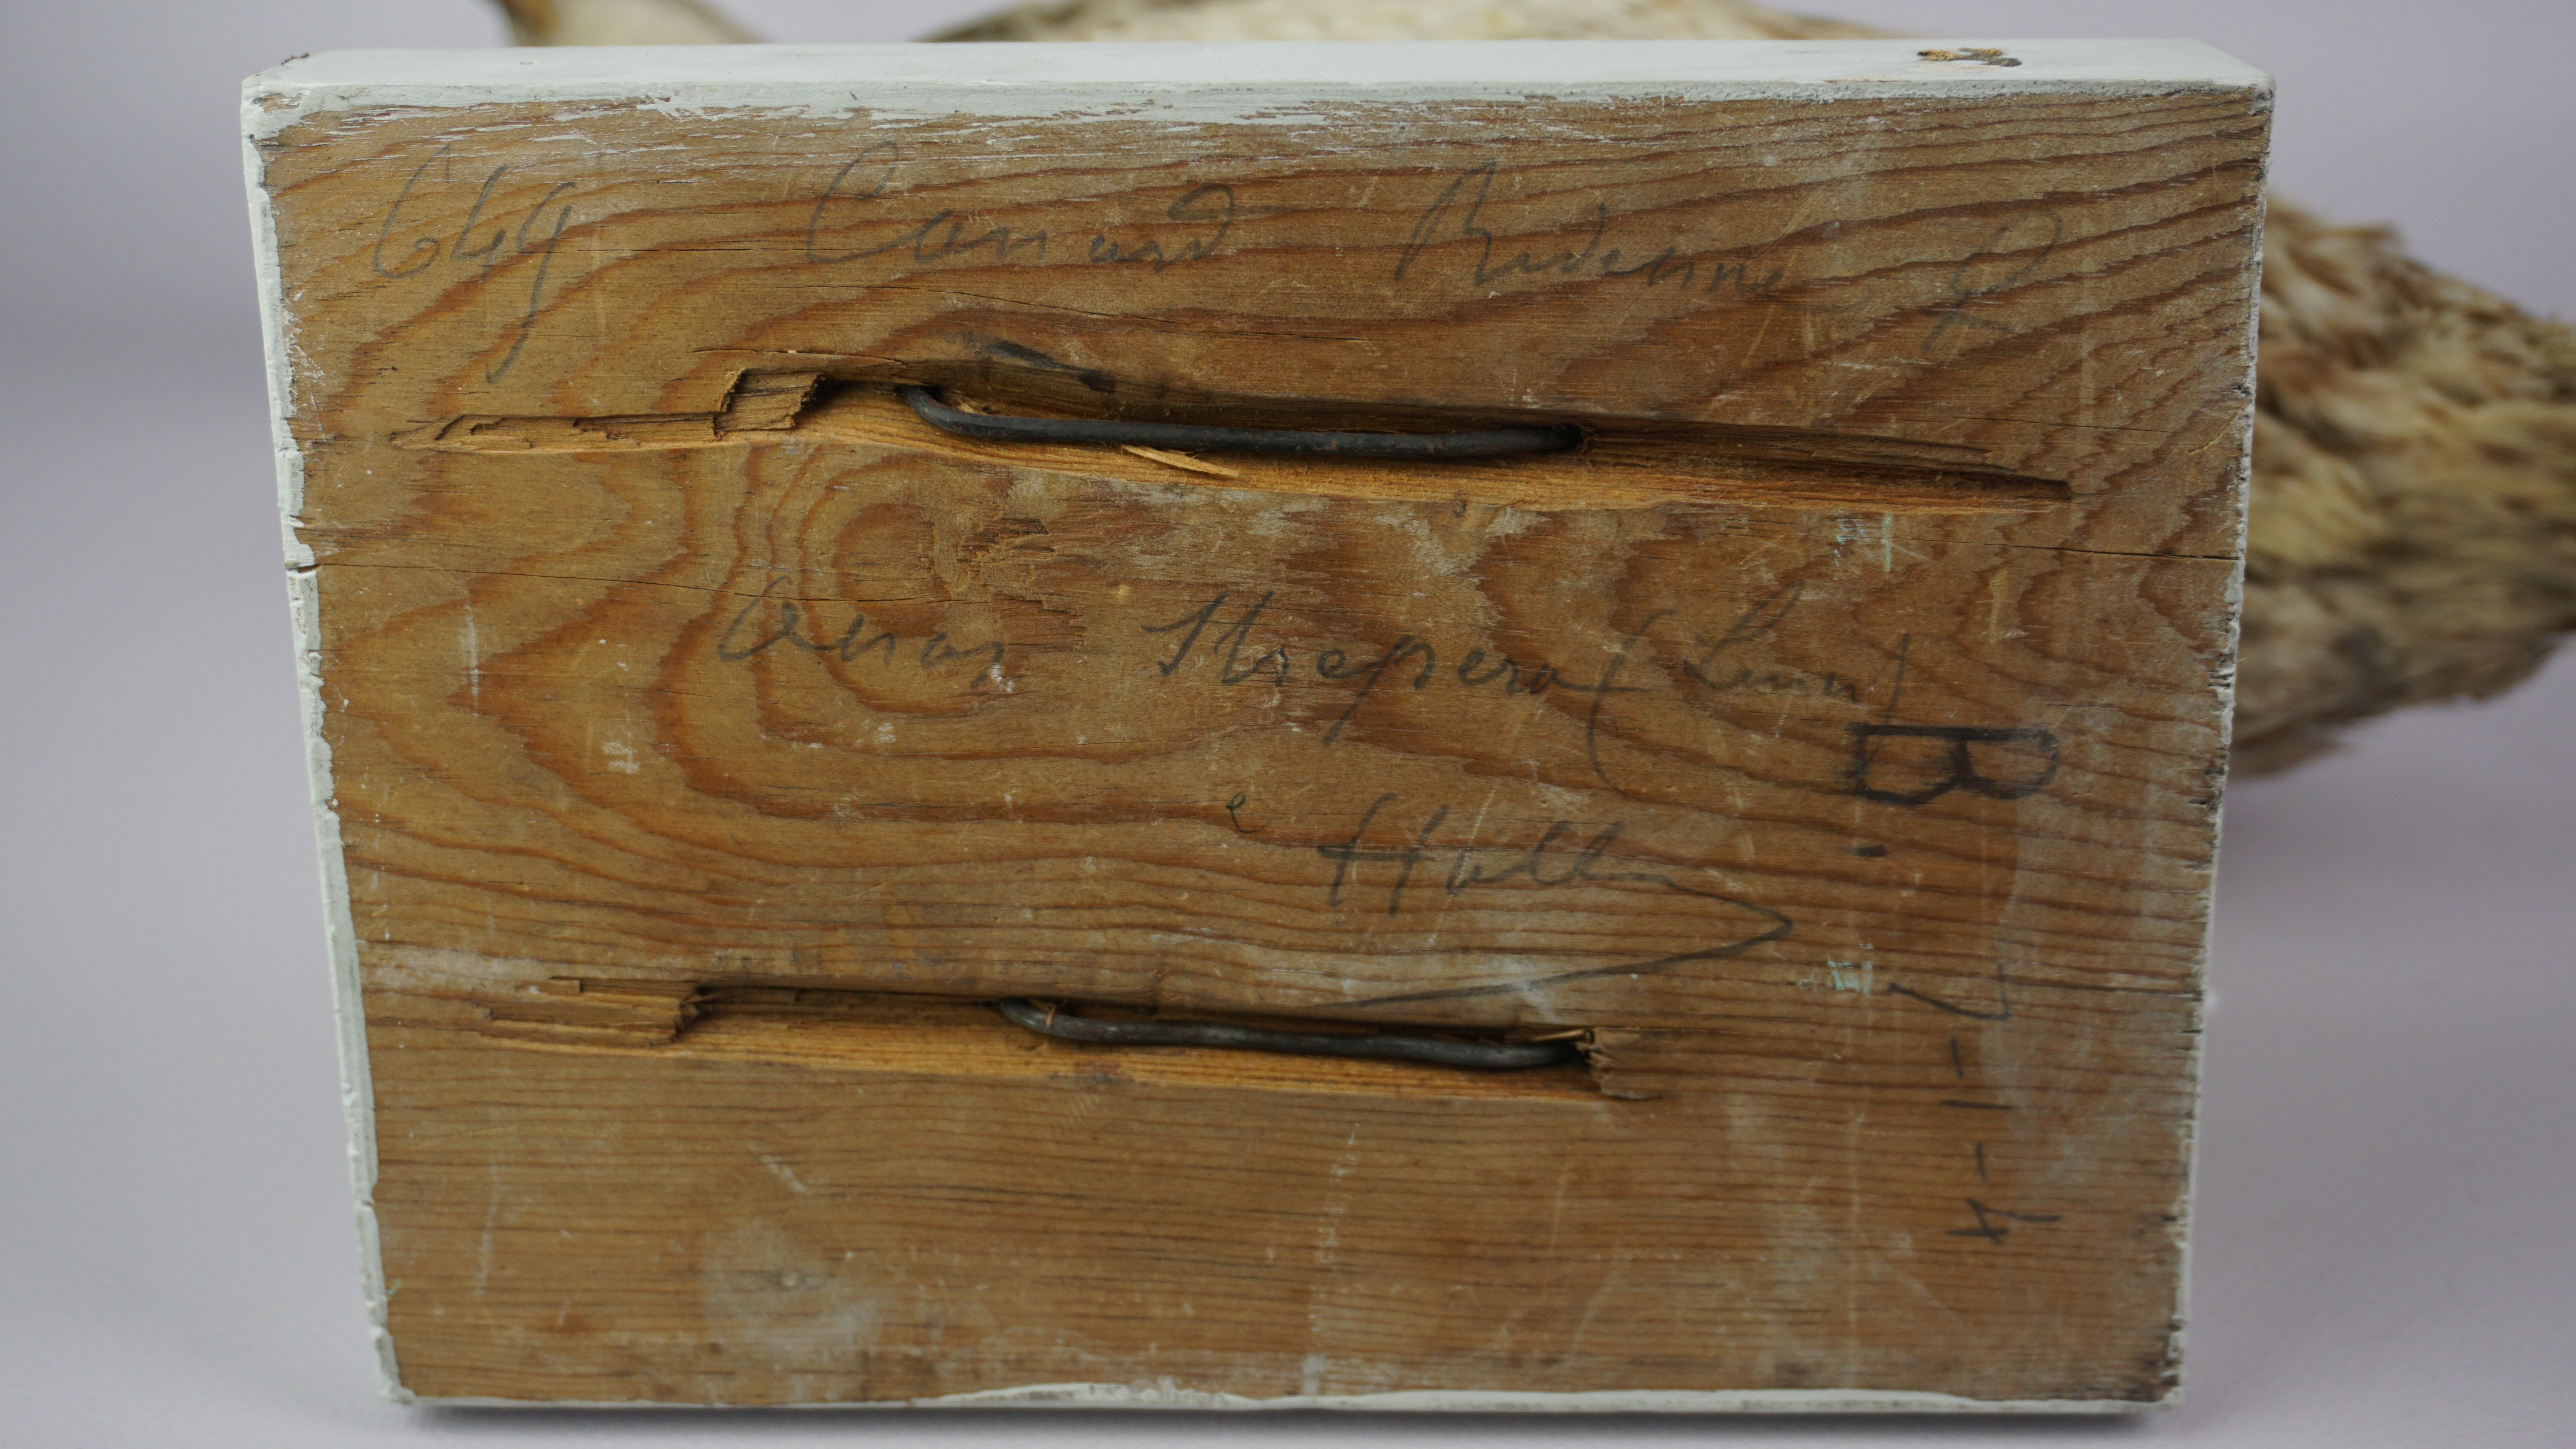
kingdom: Animalia
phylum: Chordata
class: Aves
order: Anseriformes
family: Anatidae
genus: Mareca
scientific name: Mareca strepera
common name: Gadwall
